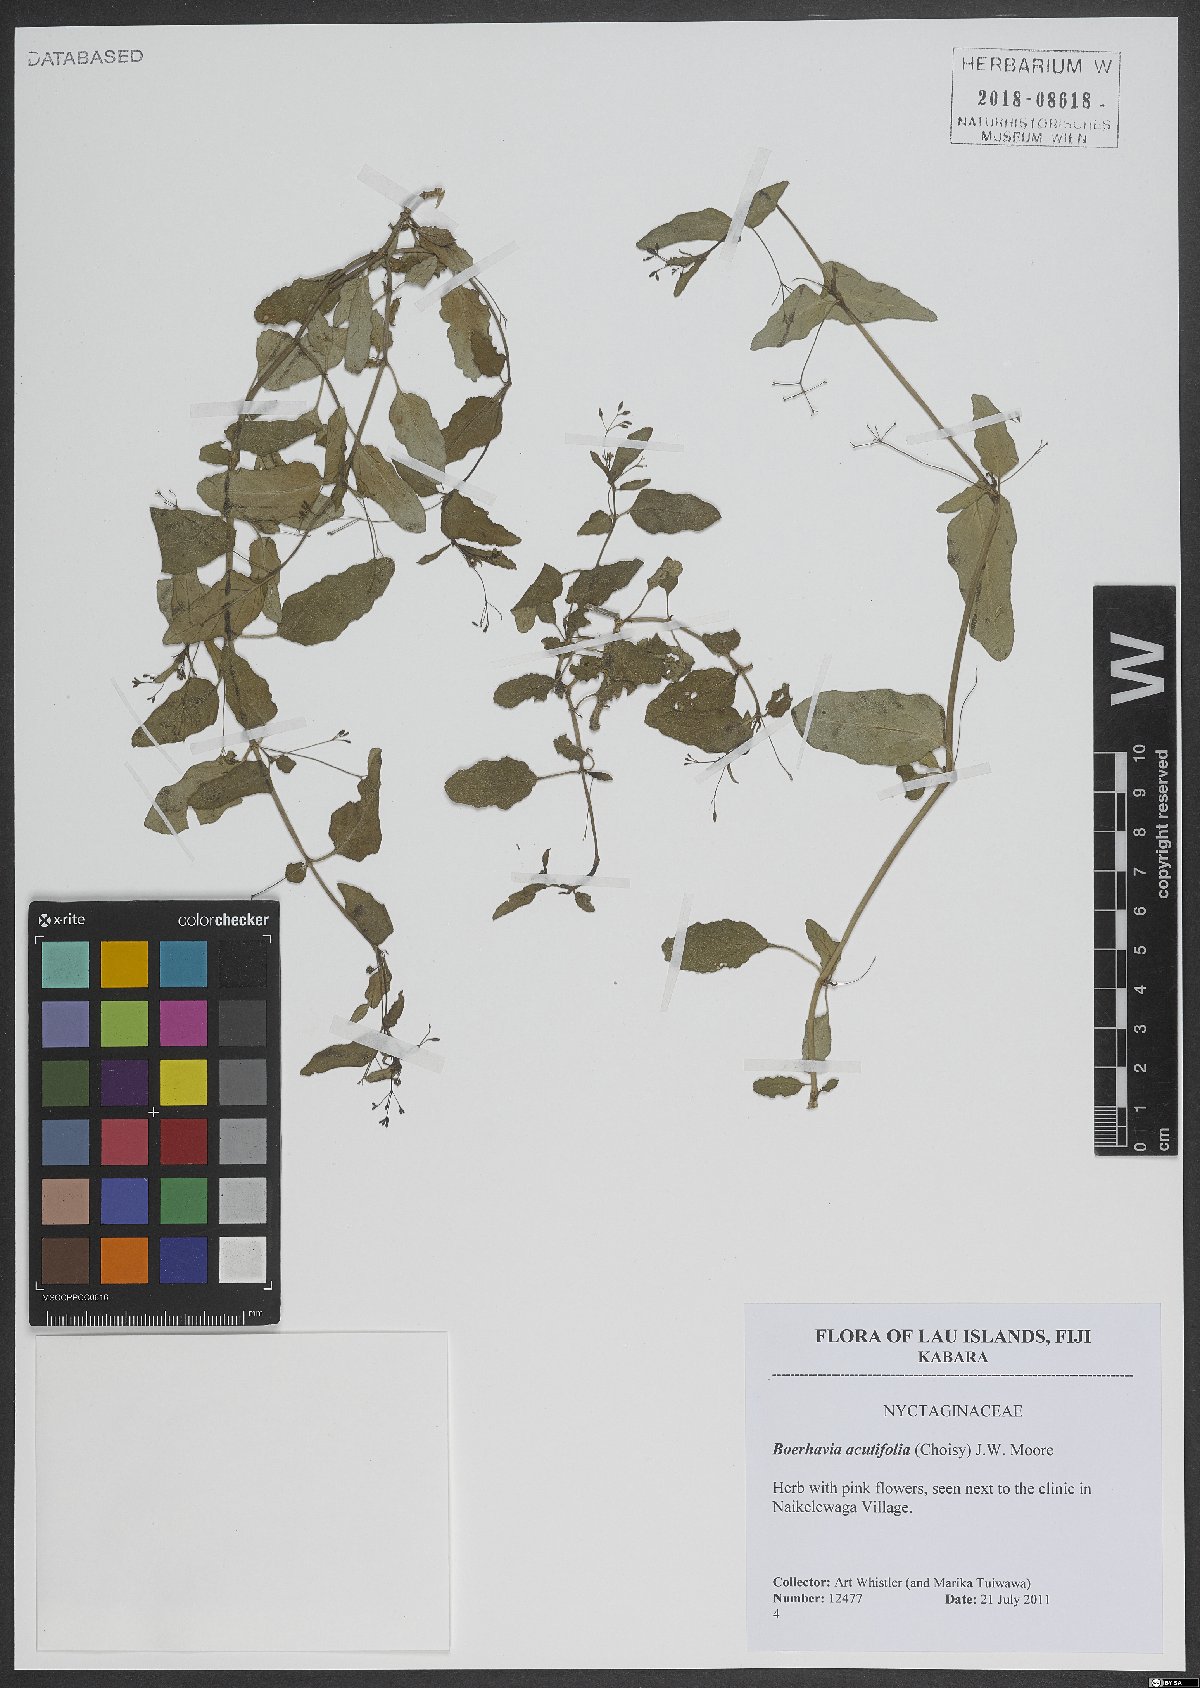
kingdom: Plantae
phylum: Tracheophyta
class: Magnoliopsida
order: Caryophyllales
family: Nyctaginaceae
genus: Boerhavia
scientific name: Boerhavia glabrata
